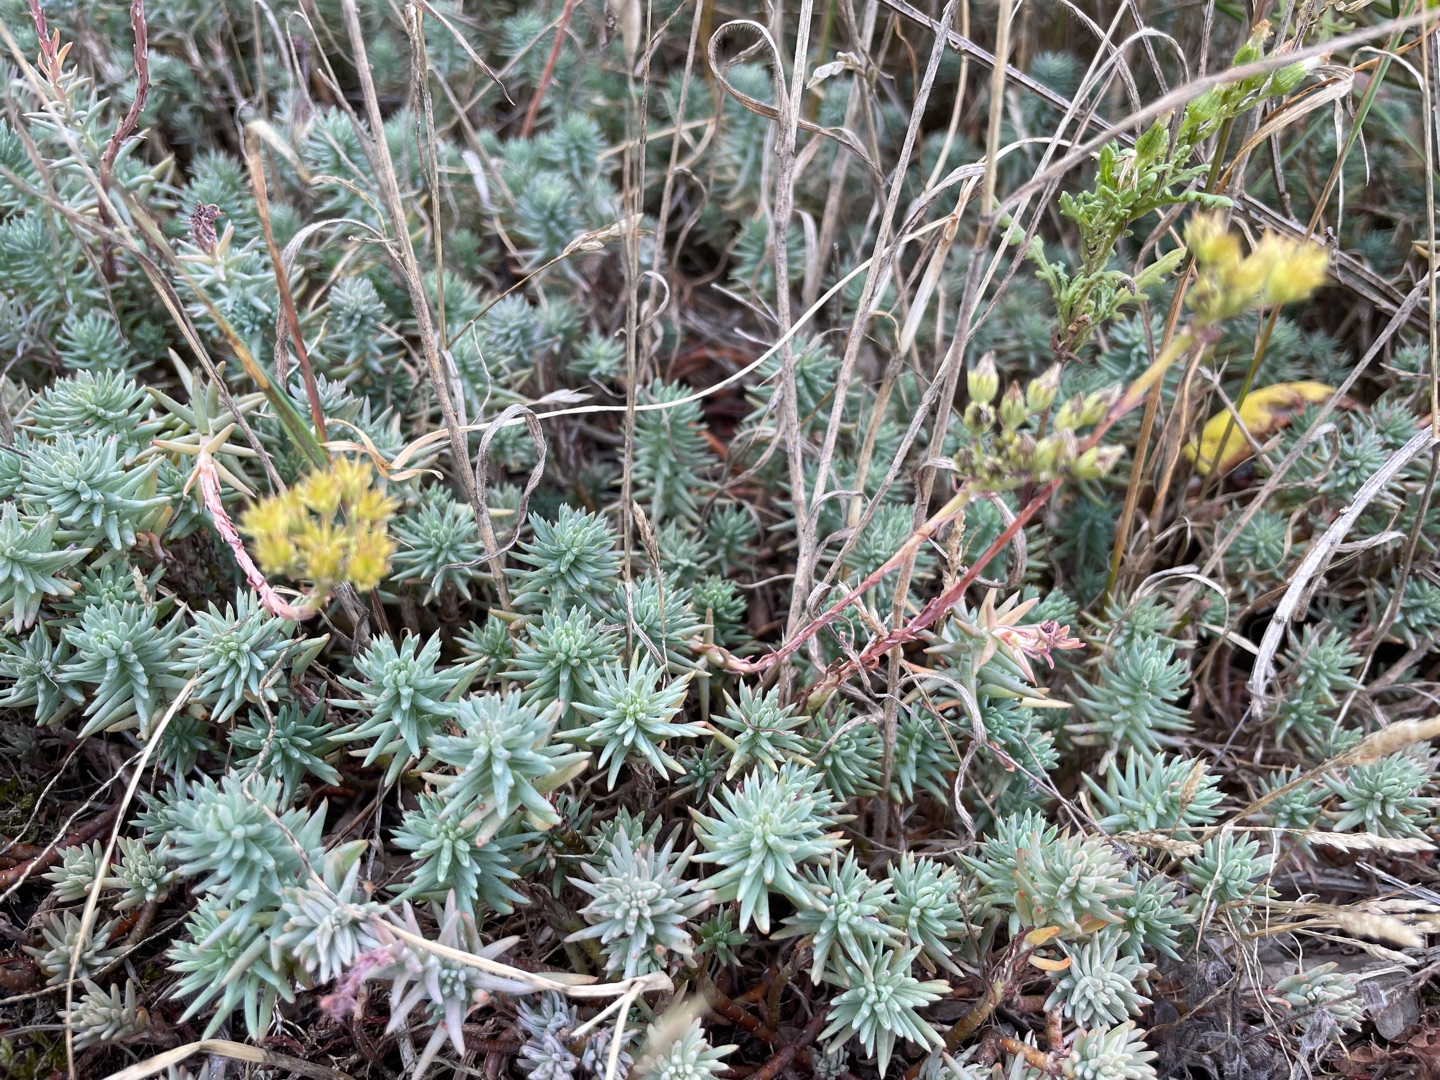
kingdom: Plantae
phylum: Tracheophyta
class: Magnoliopsida
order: Saxifragales
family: Crassulaceae
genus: Petrosedum
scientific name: Petrosedum rupestre
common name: Bjerg-stenurt
